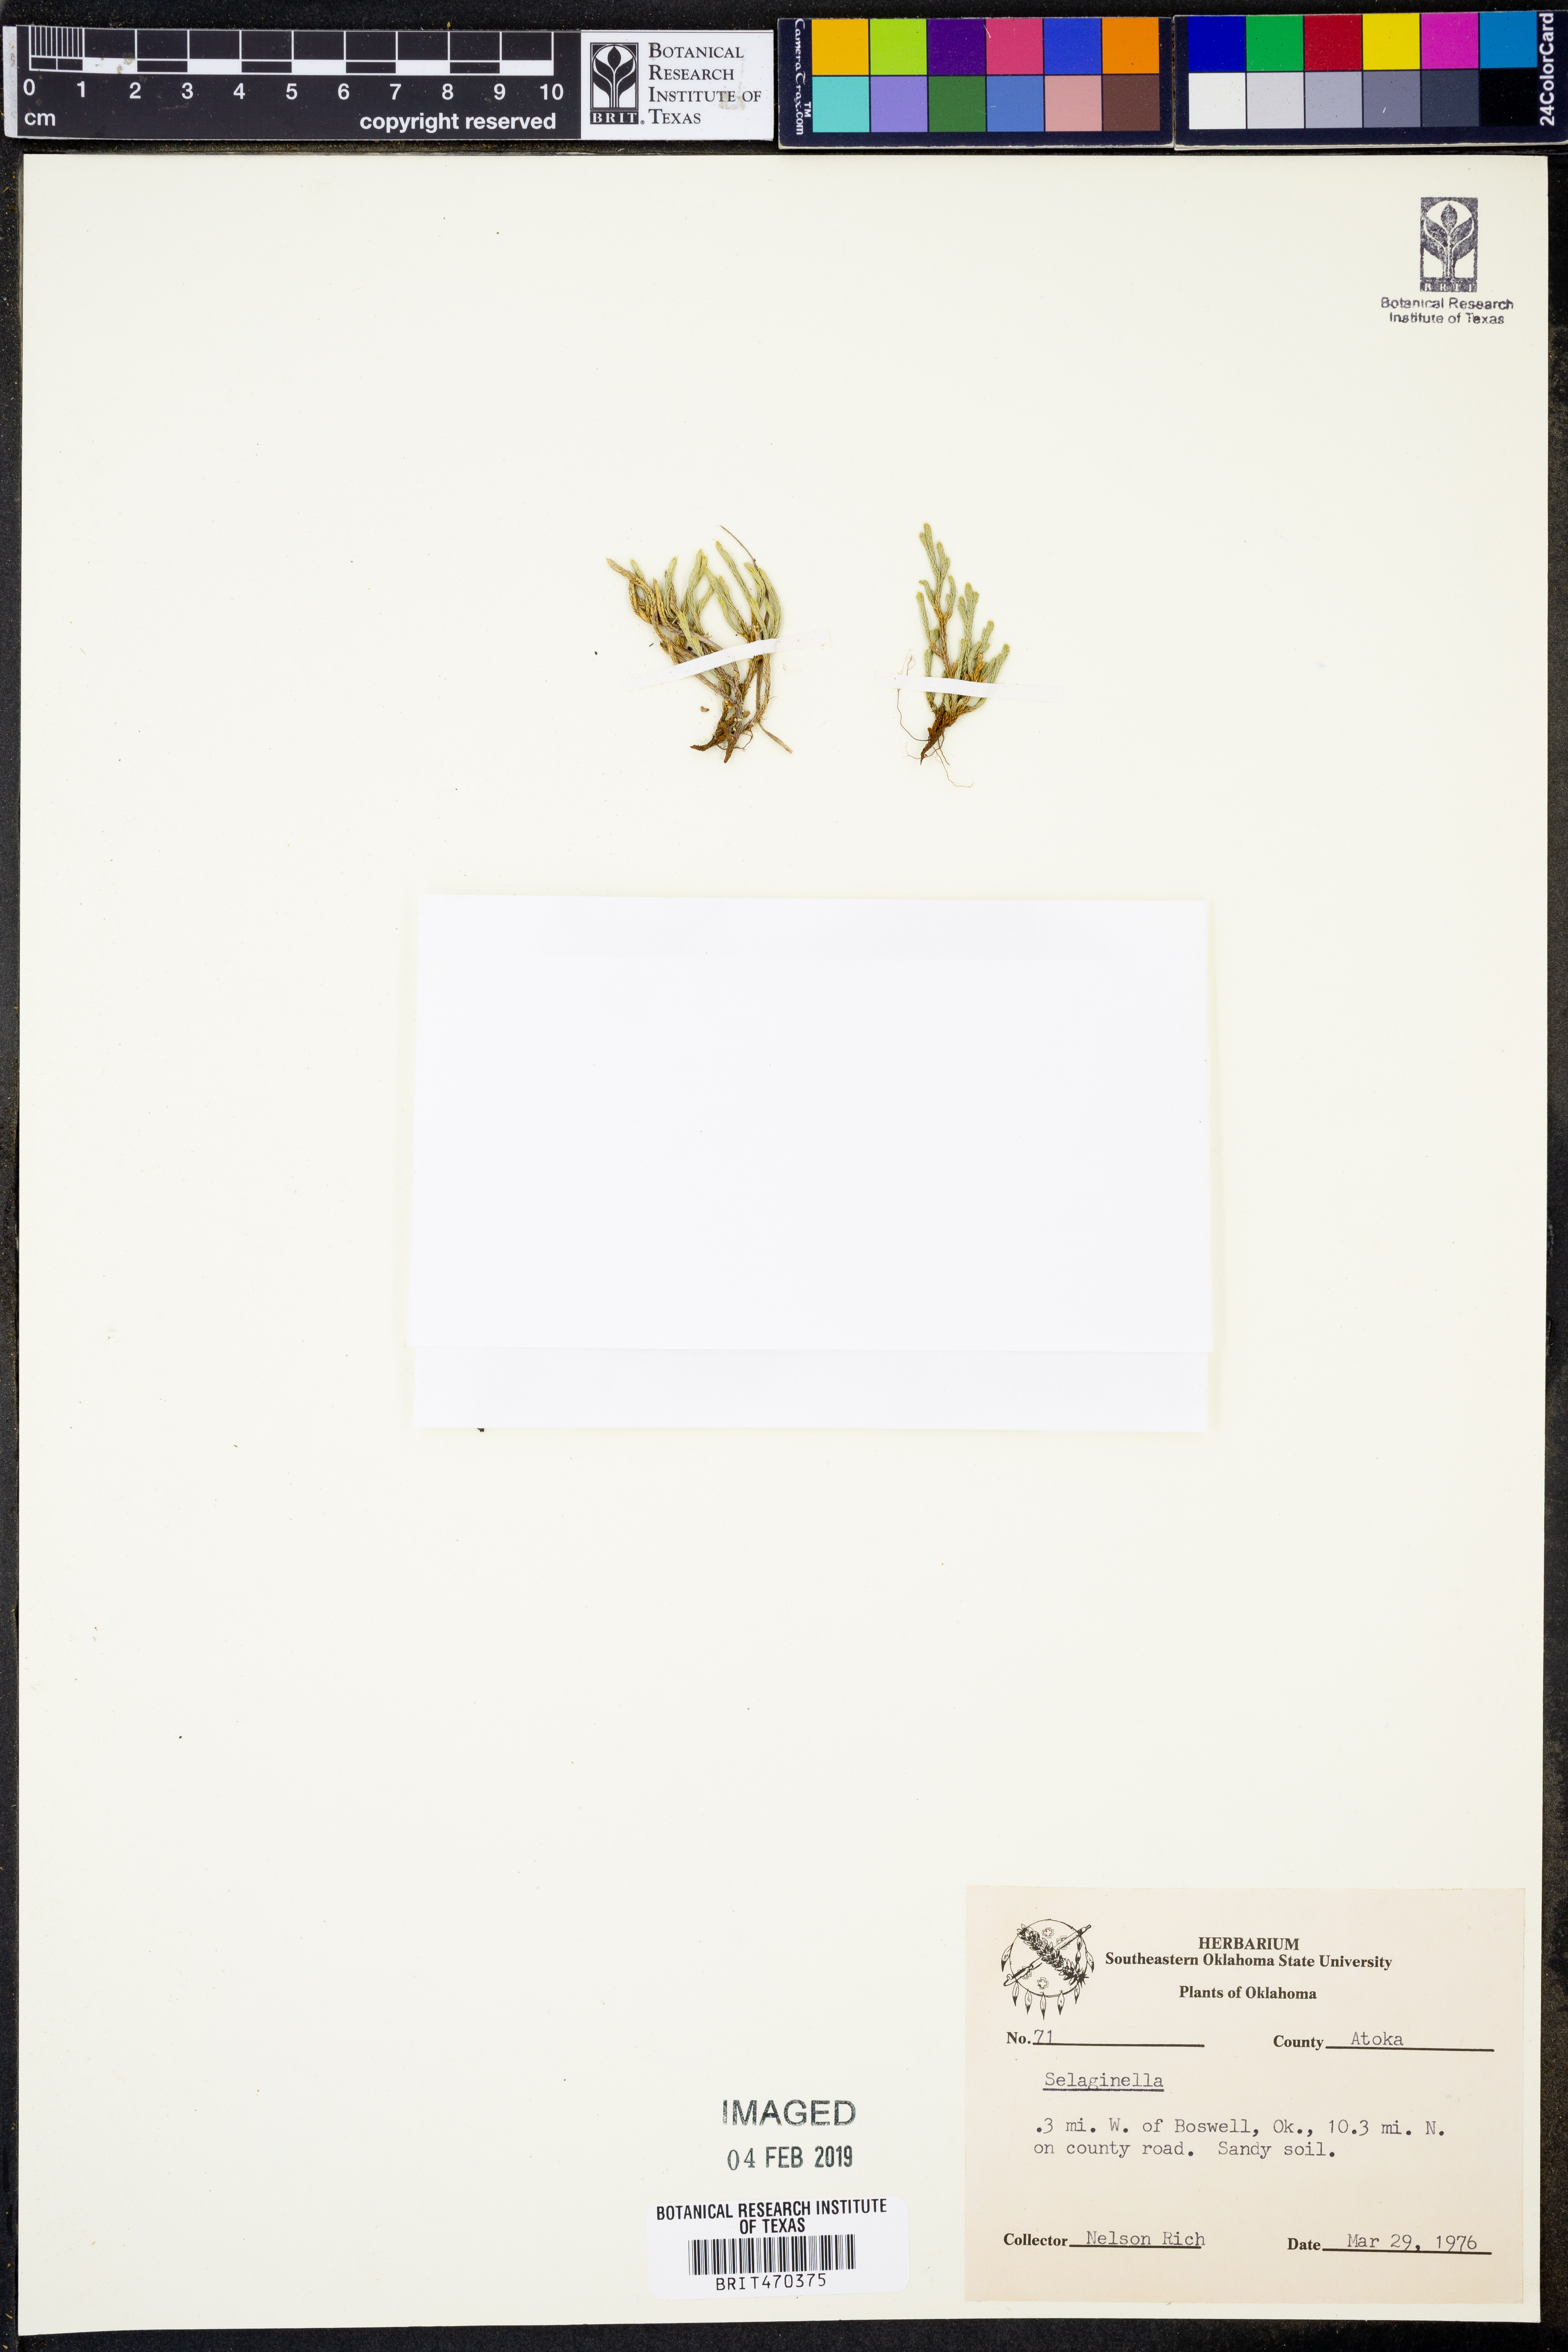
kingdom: Plantae
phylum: Tracheophyta
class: Lycopodiopsida
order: Selaginellales
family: Selaginellaceae
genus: Selaginella
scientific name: Selaginella
